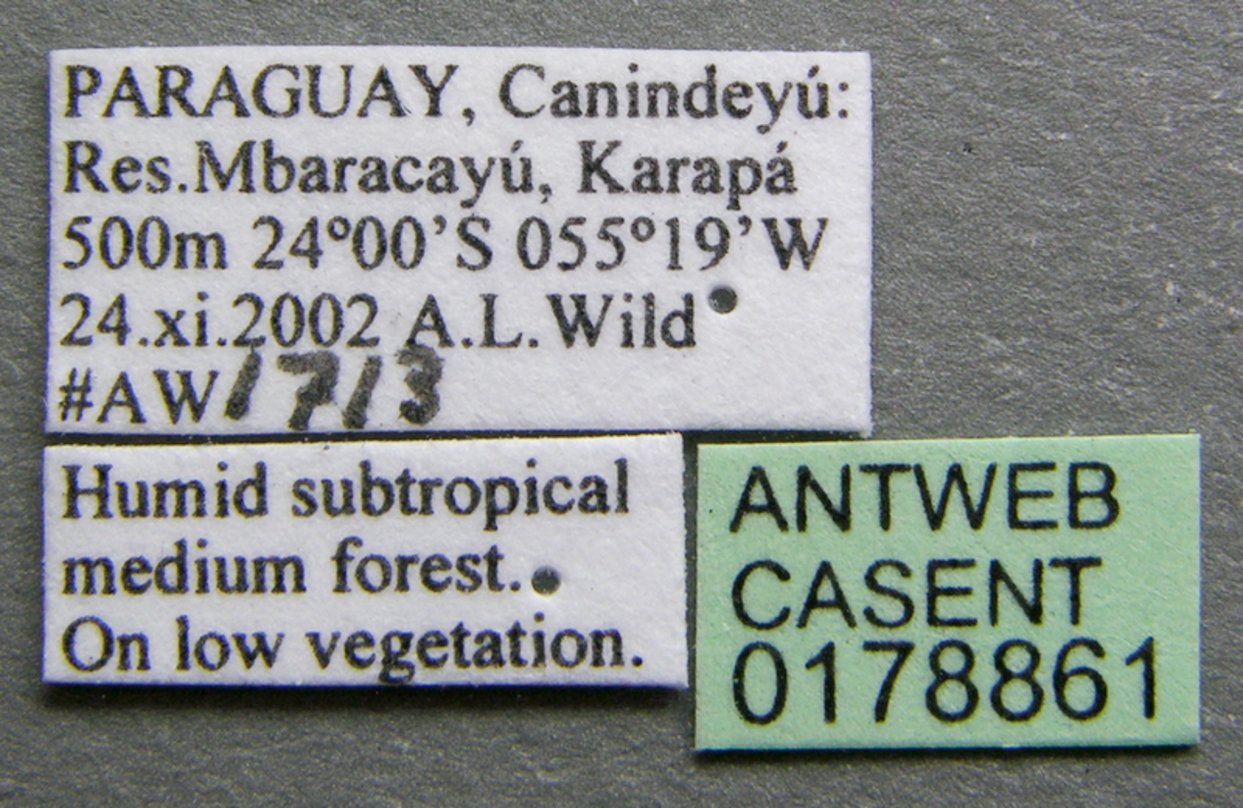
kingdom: Animalia
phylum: Arthropoda
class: Insecta
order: Hymenoptera
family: Formicidae
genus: Platythyrea
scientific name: Platythyrea pilosula
